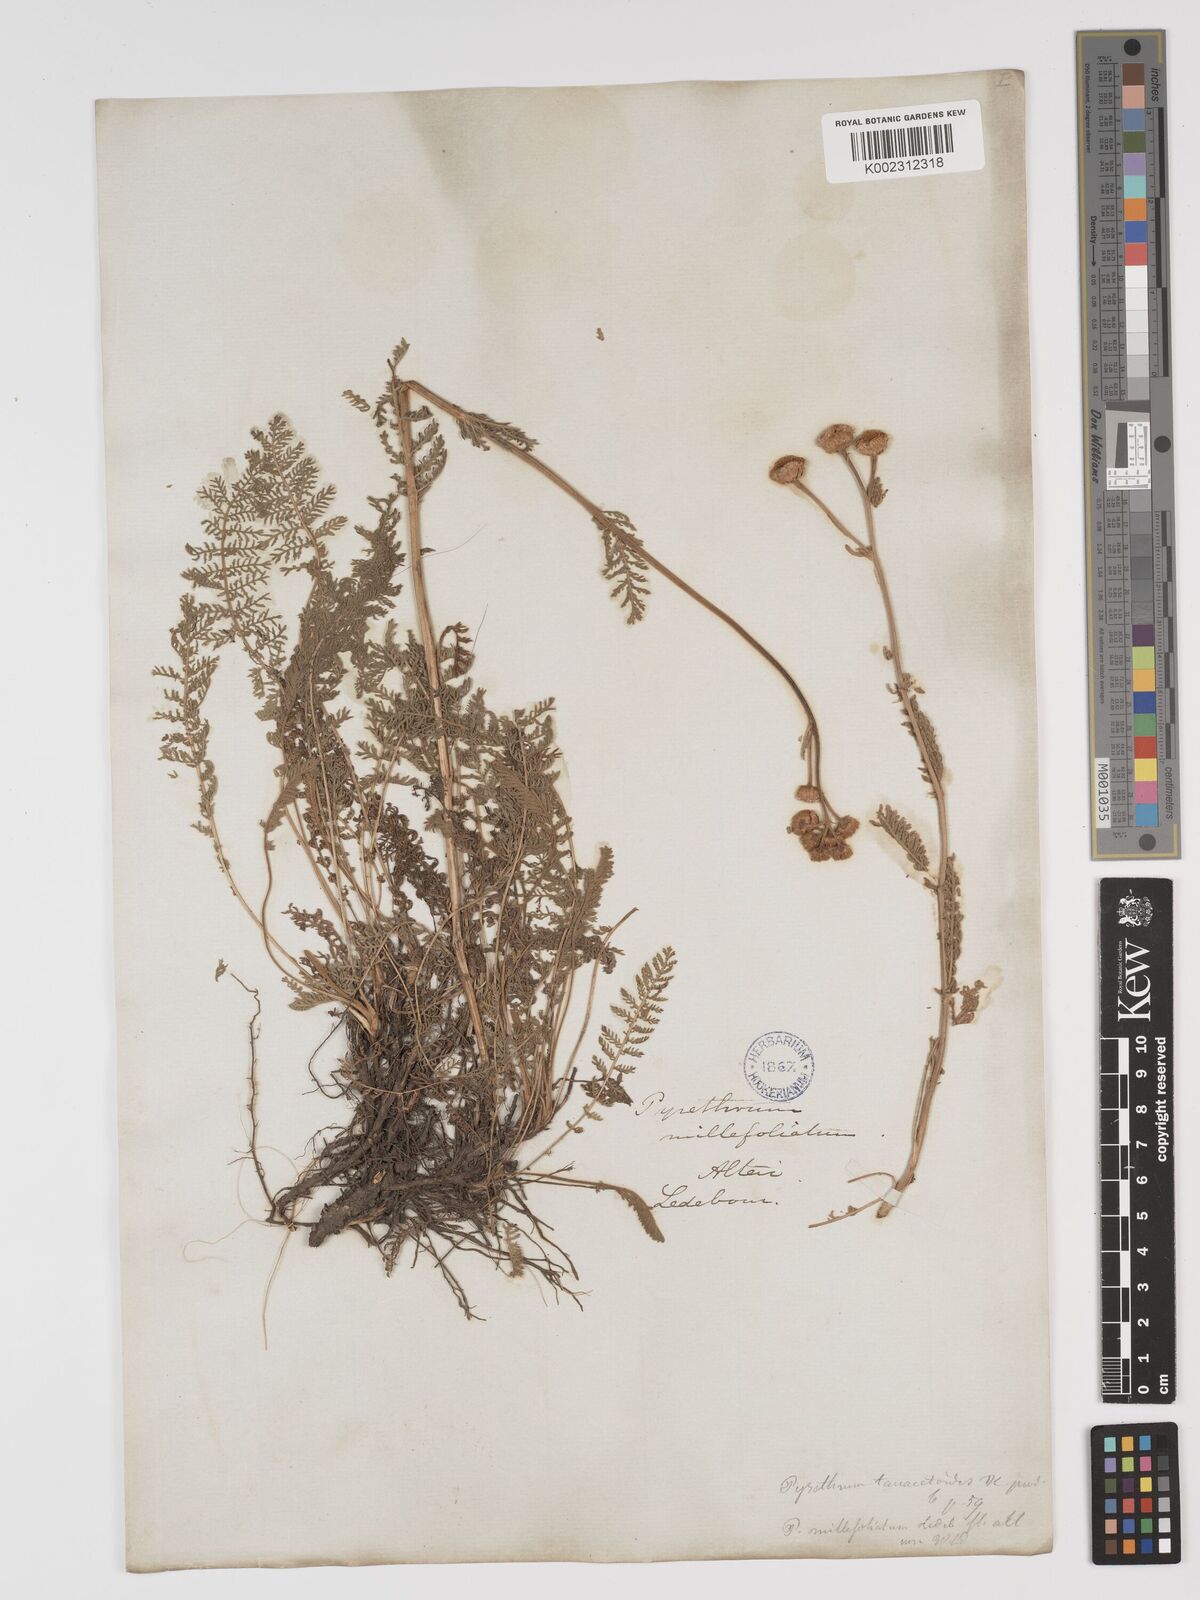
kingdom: Plantae
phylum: Tracheophyta
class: Magnoliopsida
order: Asterales
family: Asteraceae
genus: Tanacetum
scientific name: Tanacetum millefolium
